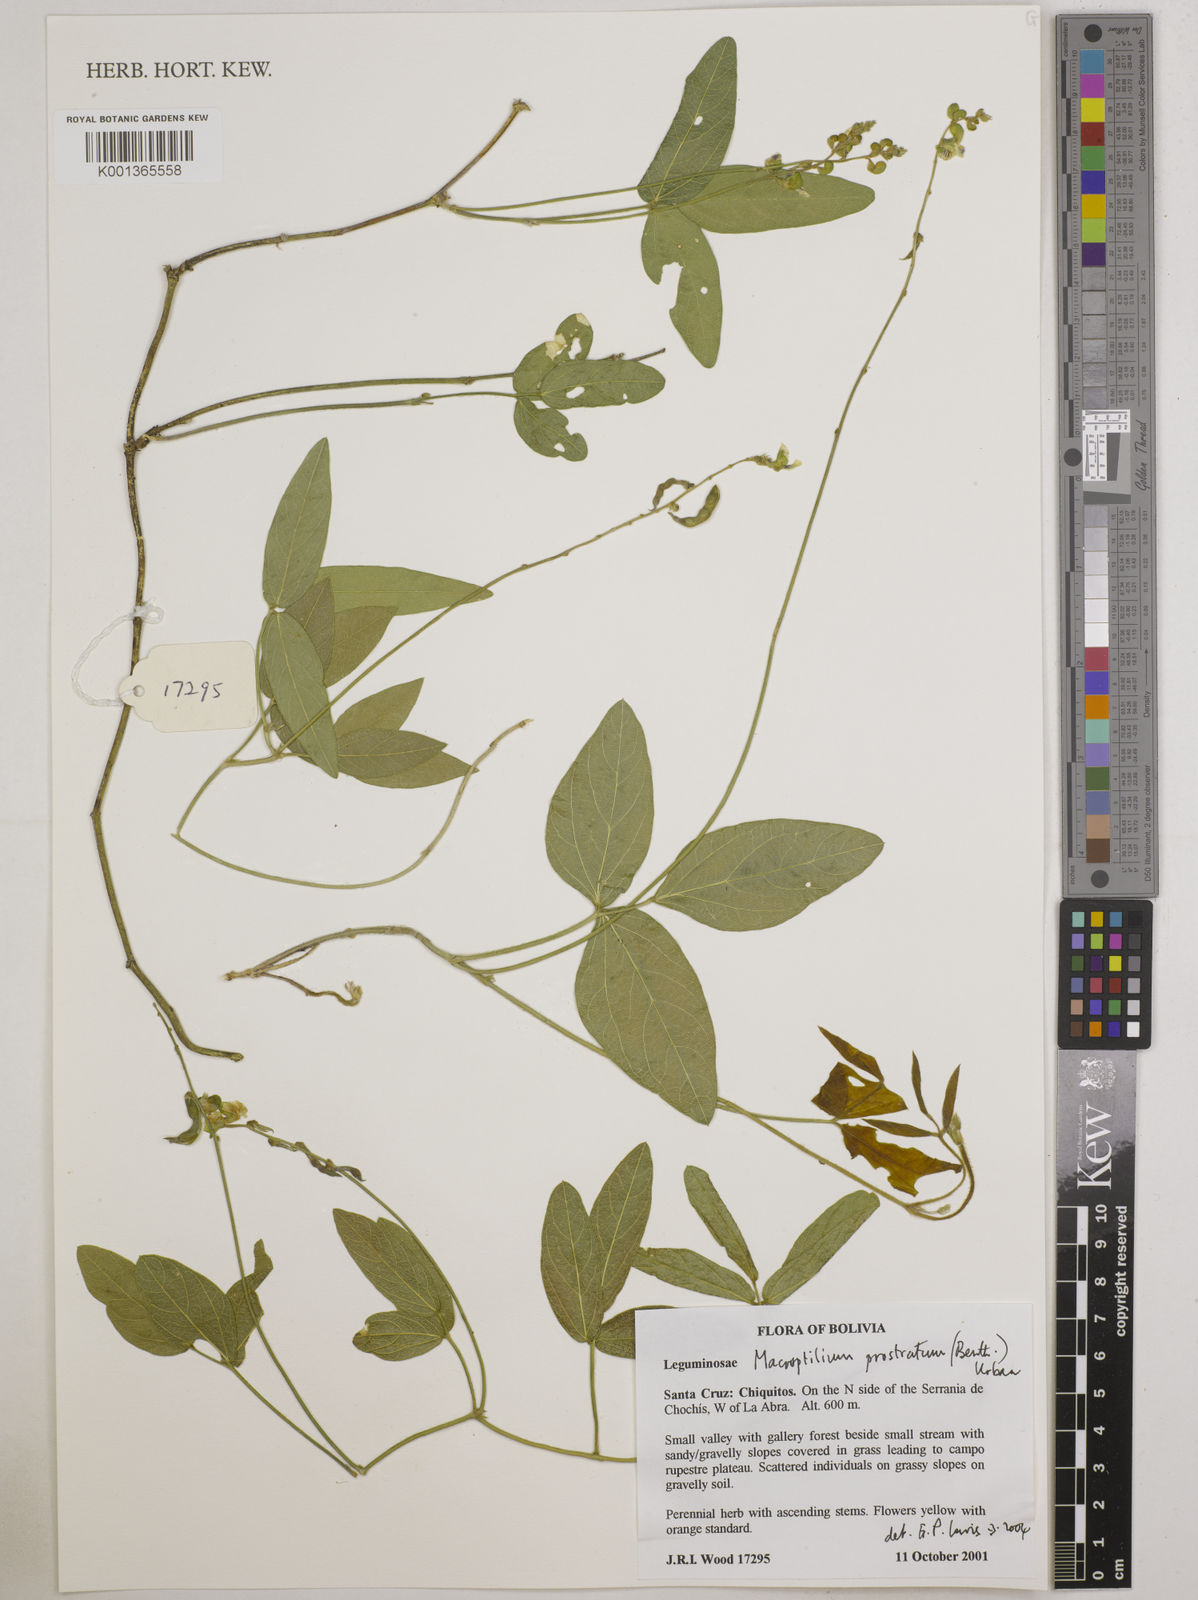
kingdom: Plantae
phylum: Tracheophyta
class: Magnoliopsida
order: Fabales
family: Fabaceae
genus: Macroptilium
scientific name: Macroptilium prostratum
